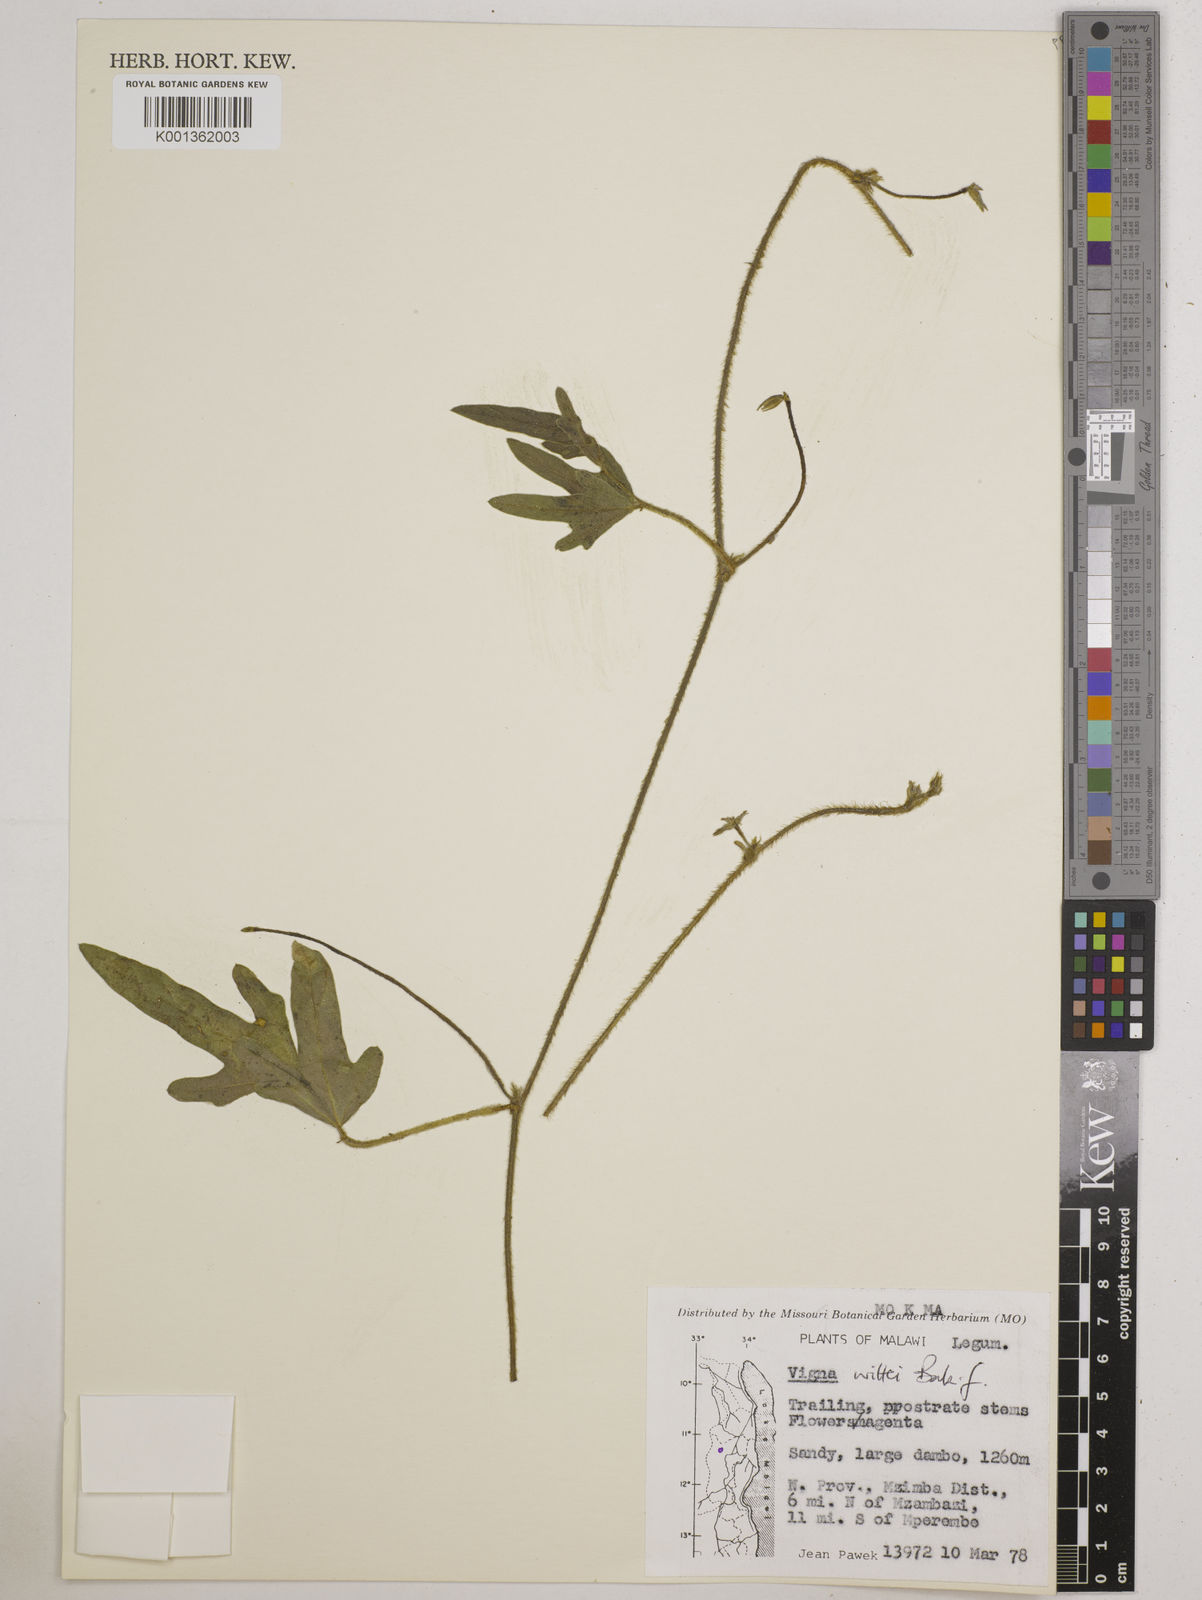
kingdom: Plantae
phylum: Tracheophyta
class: Magnoliopsida
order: Fabales
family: Fabaceae
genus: Vigna
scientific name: Vigna radicans
